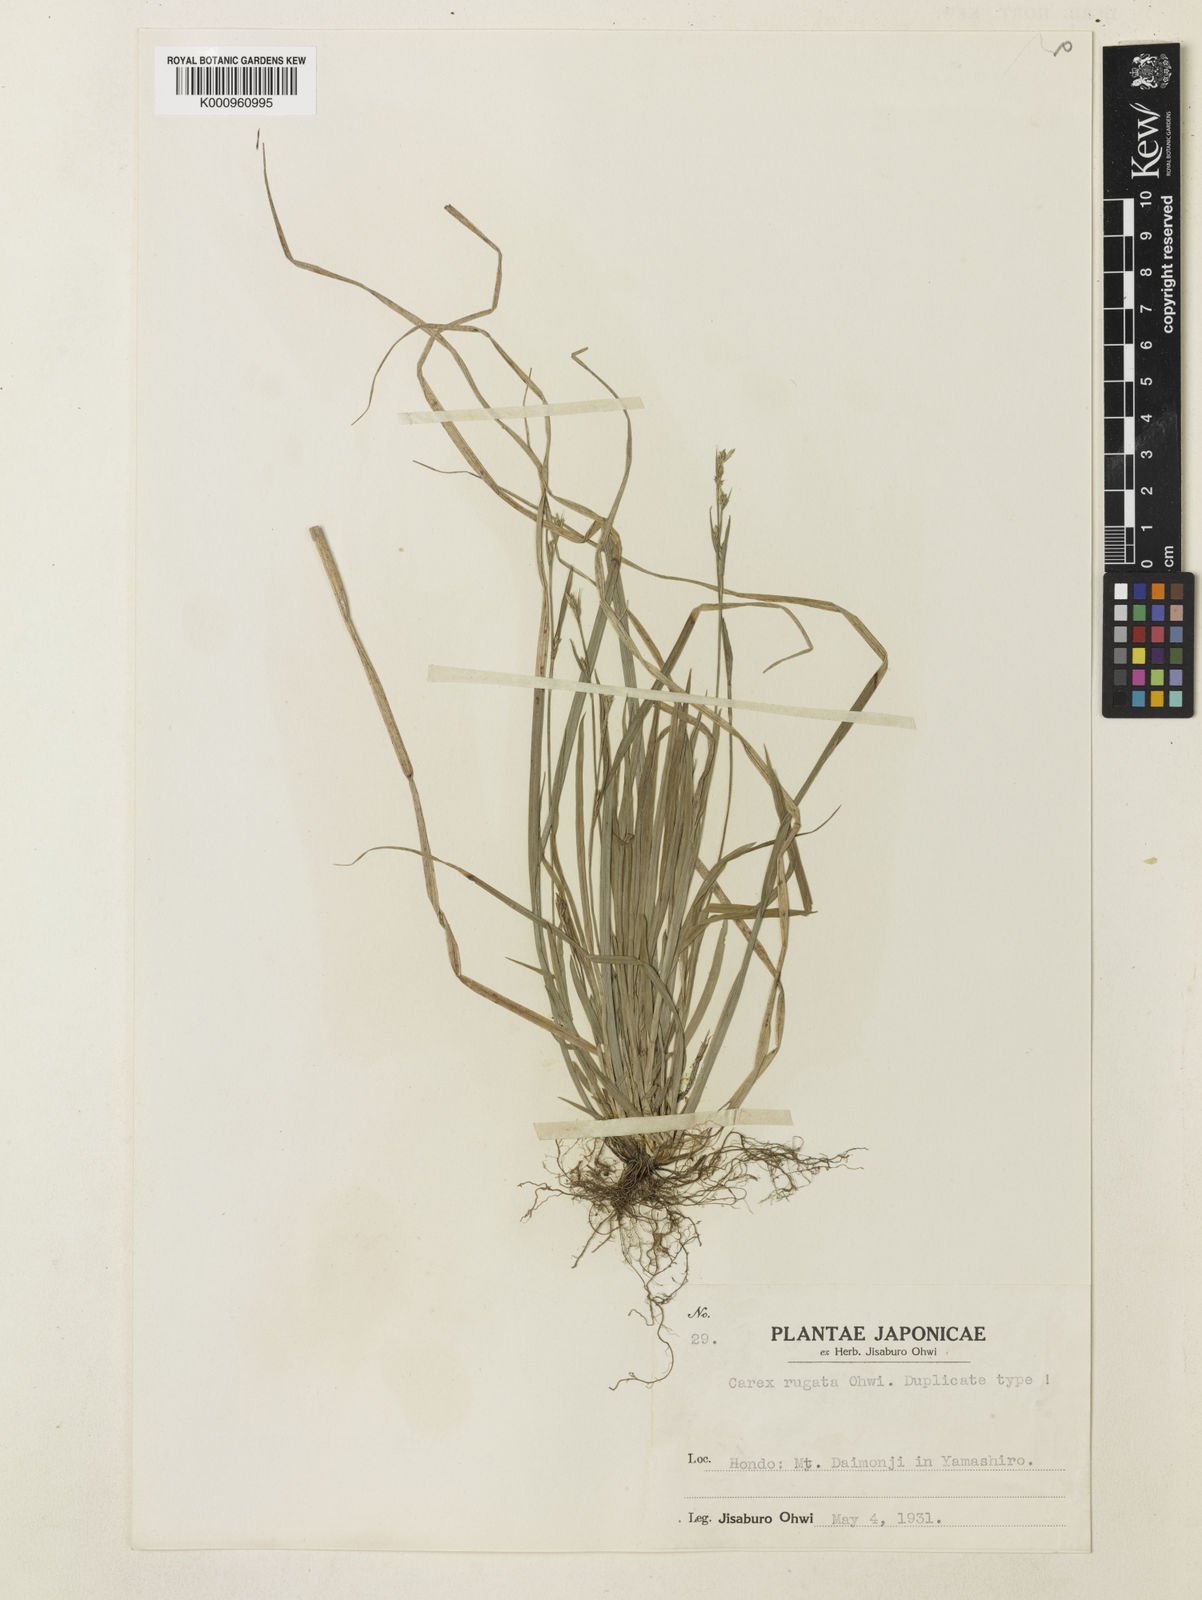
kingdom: Plantae
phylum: Tracheophyta
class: Liliopsida
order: Poales
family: Cyperaceae
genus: Carex
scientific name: Carex rugata
